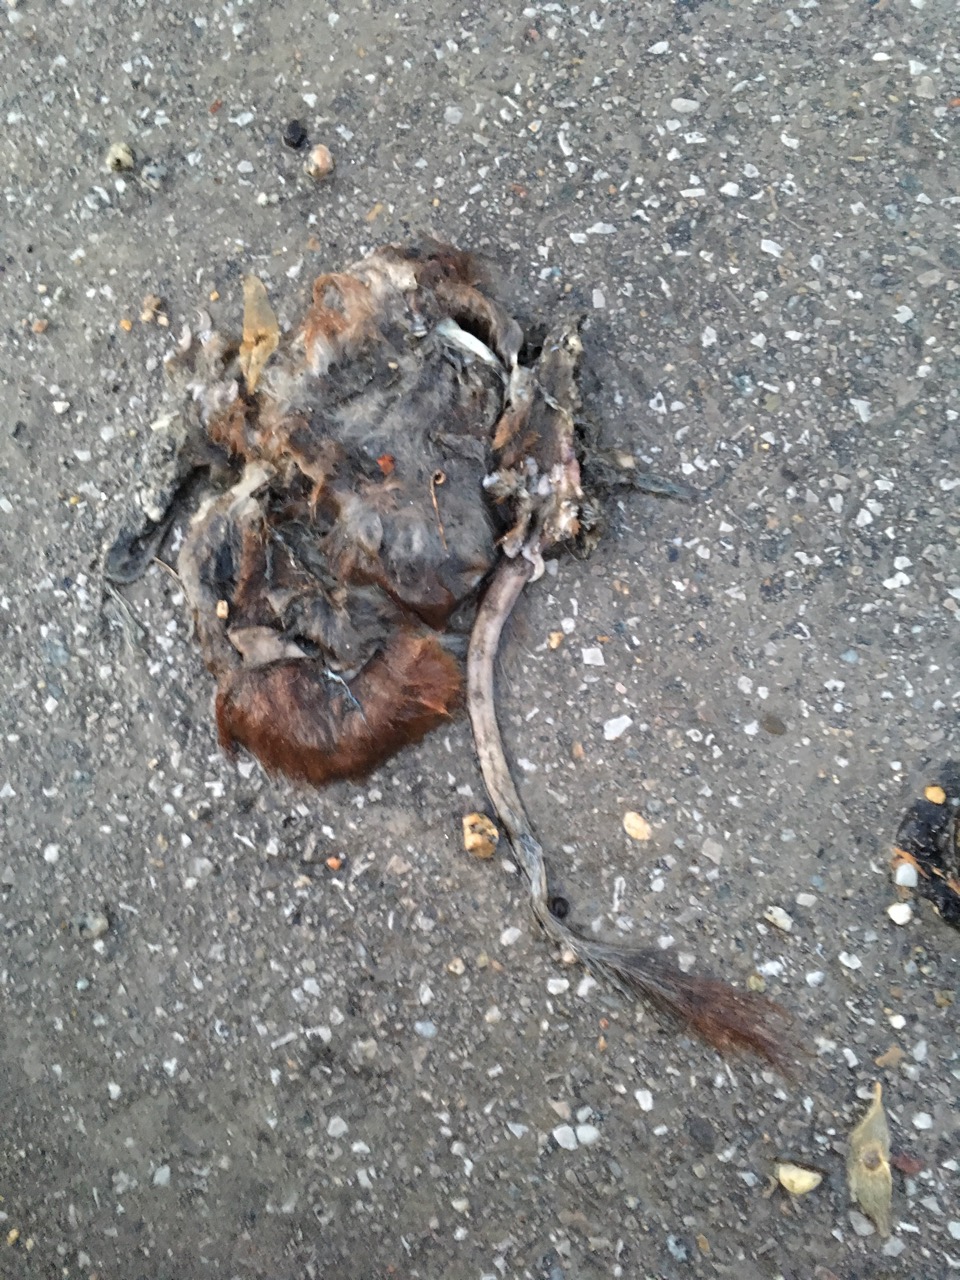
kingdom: Animalia
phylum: Chordata
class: Mammalia
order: Rodentia
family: Sciuridae
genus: Sciurus
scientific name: Sciurus vulgaris
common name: Eurasian red squirrel
